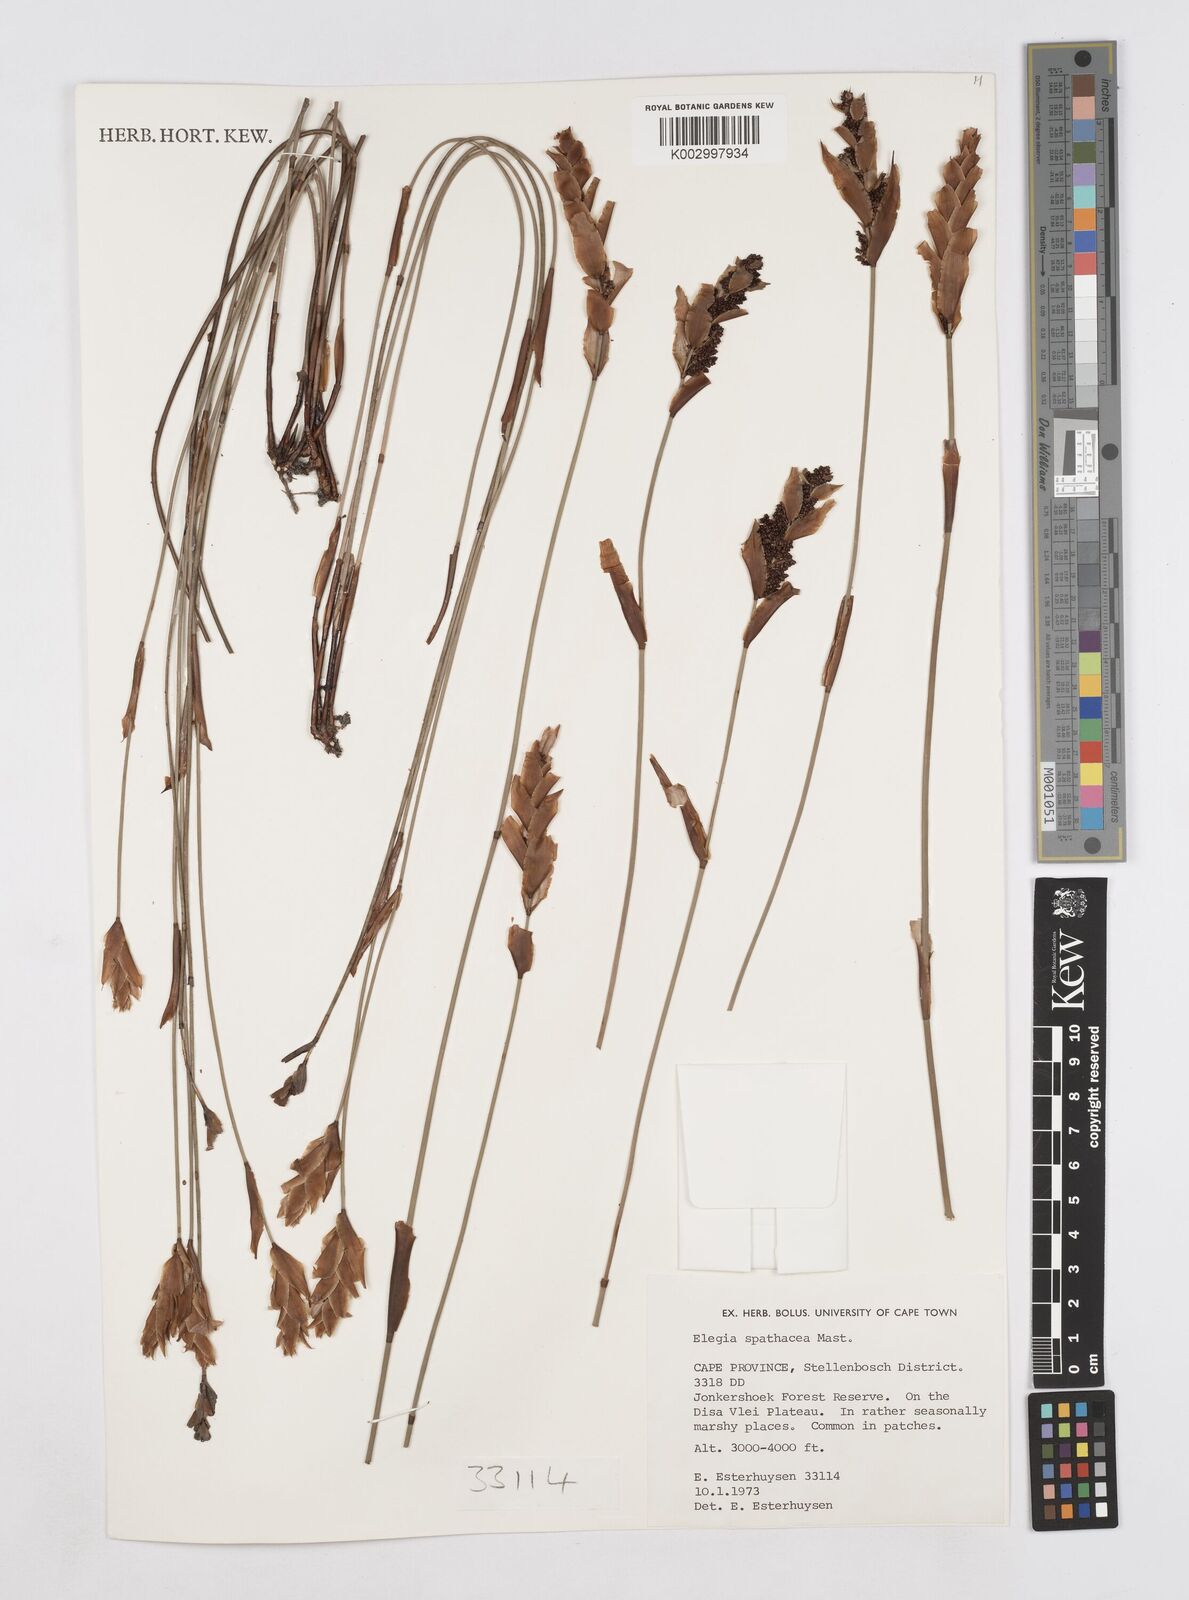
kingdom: Plantae
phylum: Tracheophyta
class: Liliopsida
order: Poales
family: Restionaceae
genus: Elegia
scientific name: Elegia spathacea
